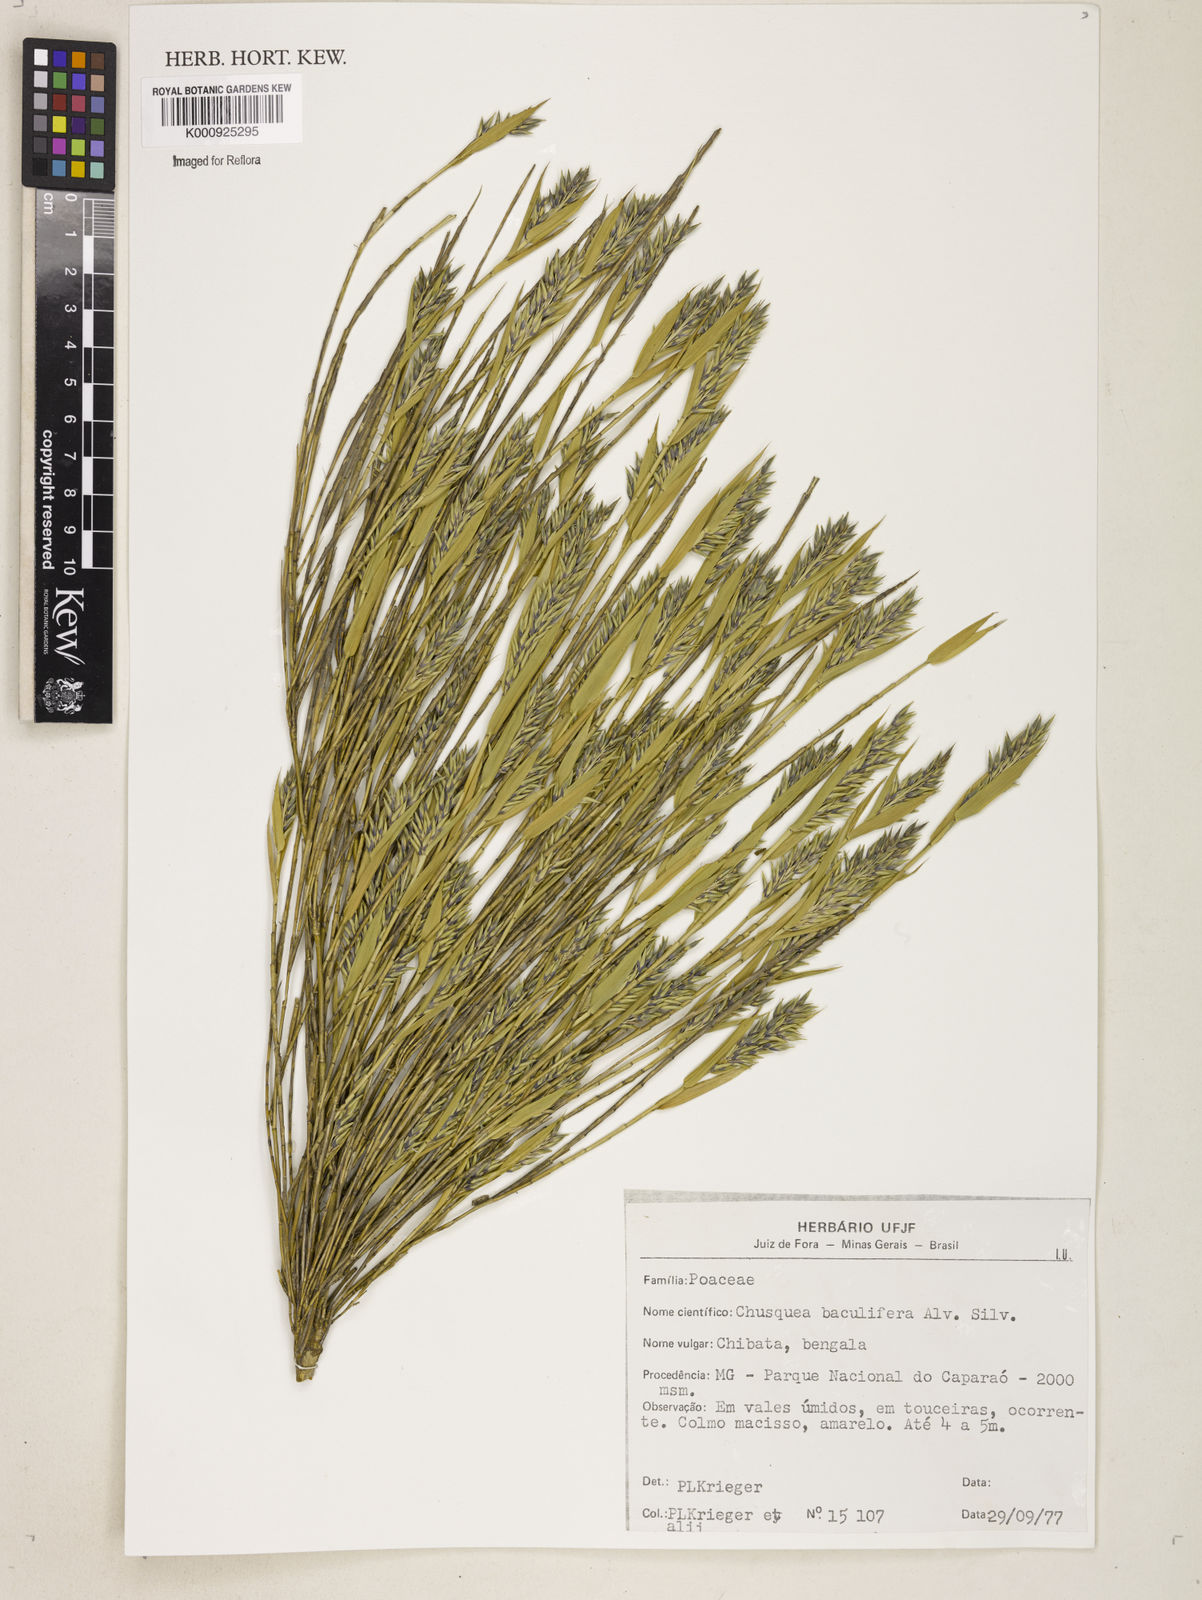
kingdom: Plantae
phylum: Tracheophyta
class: Liliopsida
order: Poales
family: Poaceae
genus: Chusquea
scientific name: Chusquea baculifera
